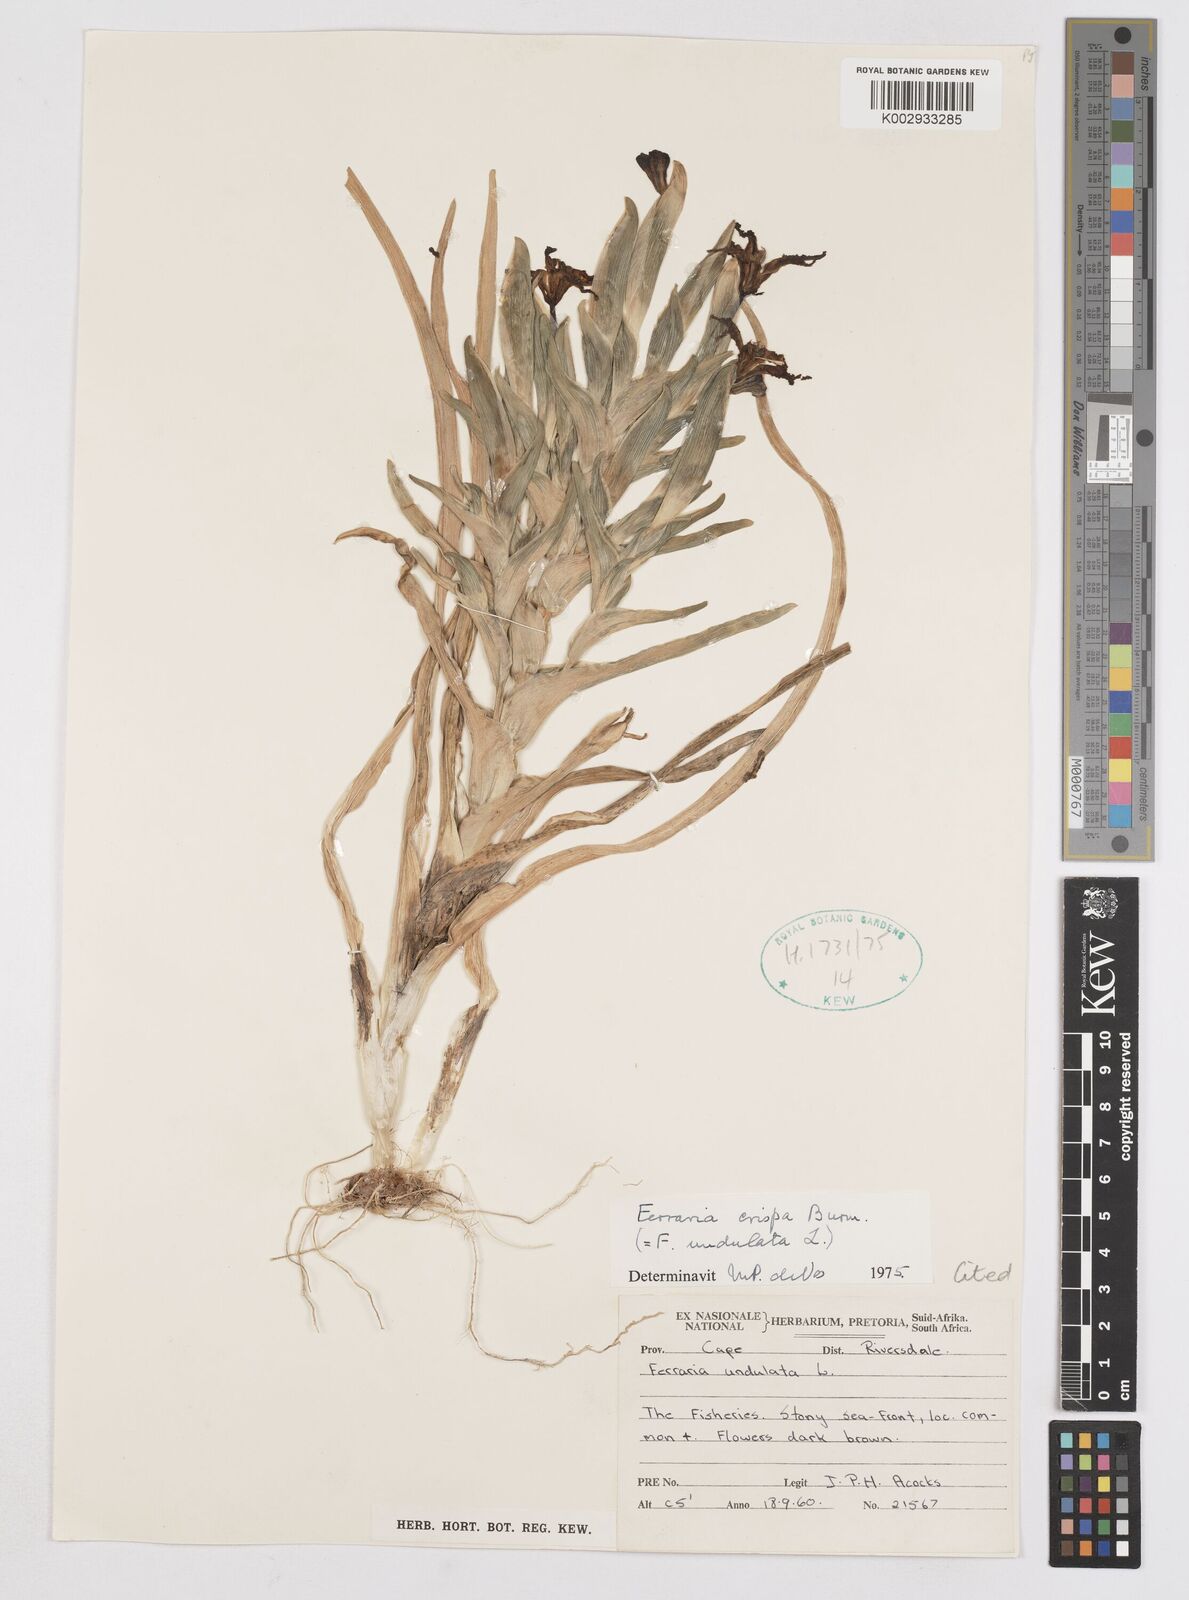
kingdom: Plantae
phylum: Tracheophyta
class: Liliopsida
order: Asparagales
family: Iridaceae
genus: Ferraria
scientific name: Ferraria crispa
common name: Black-flag
